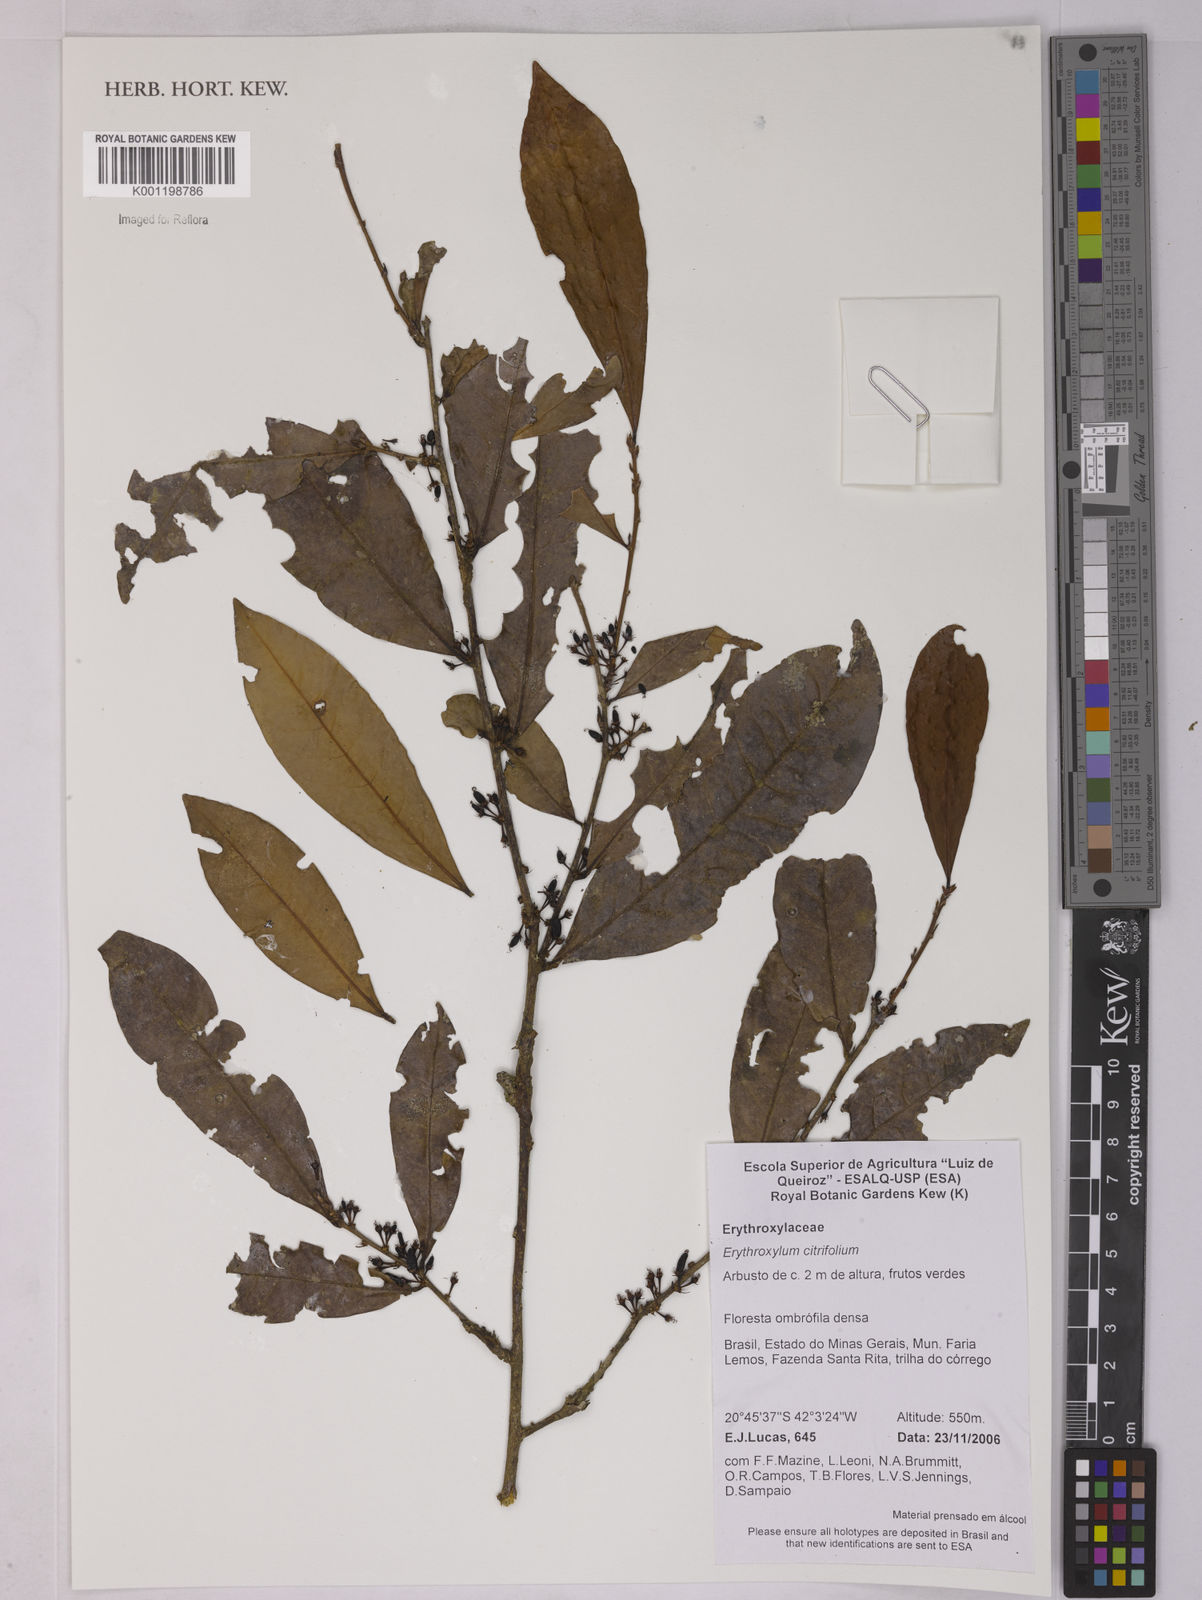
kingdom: Plantae
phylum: Tracheophyta
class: Magnoliopsida
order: Malpighiales
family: Erythroxylaceae
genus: Erythroxylum
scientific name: Erythroxylum citrifolium
